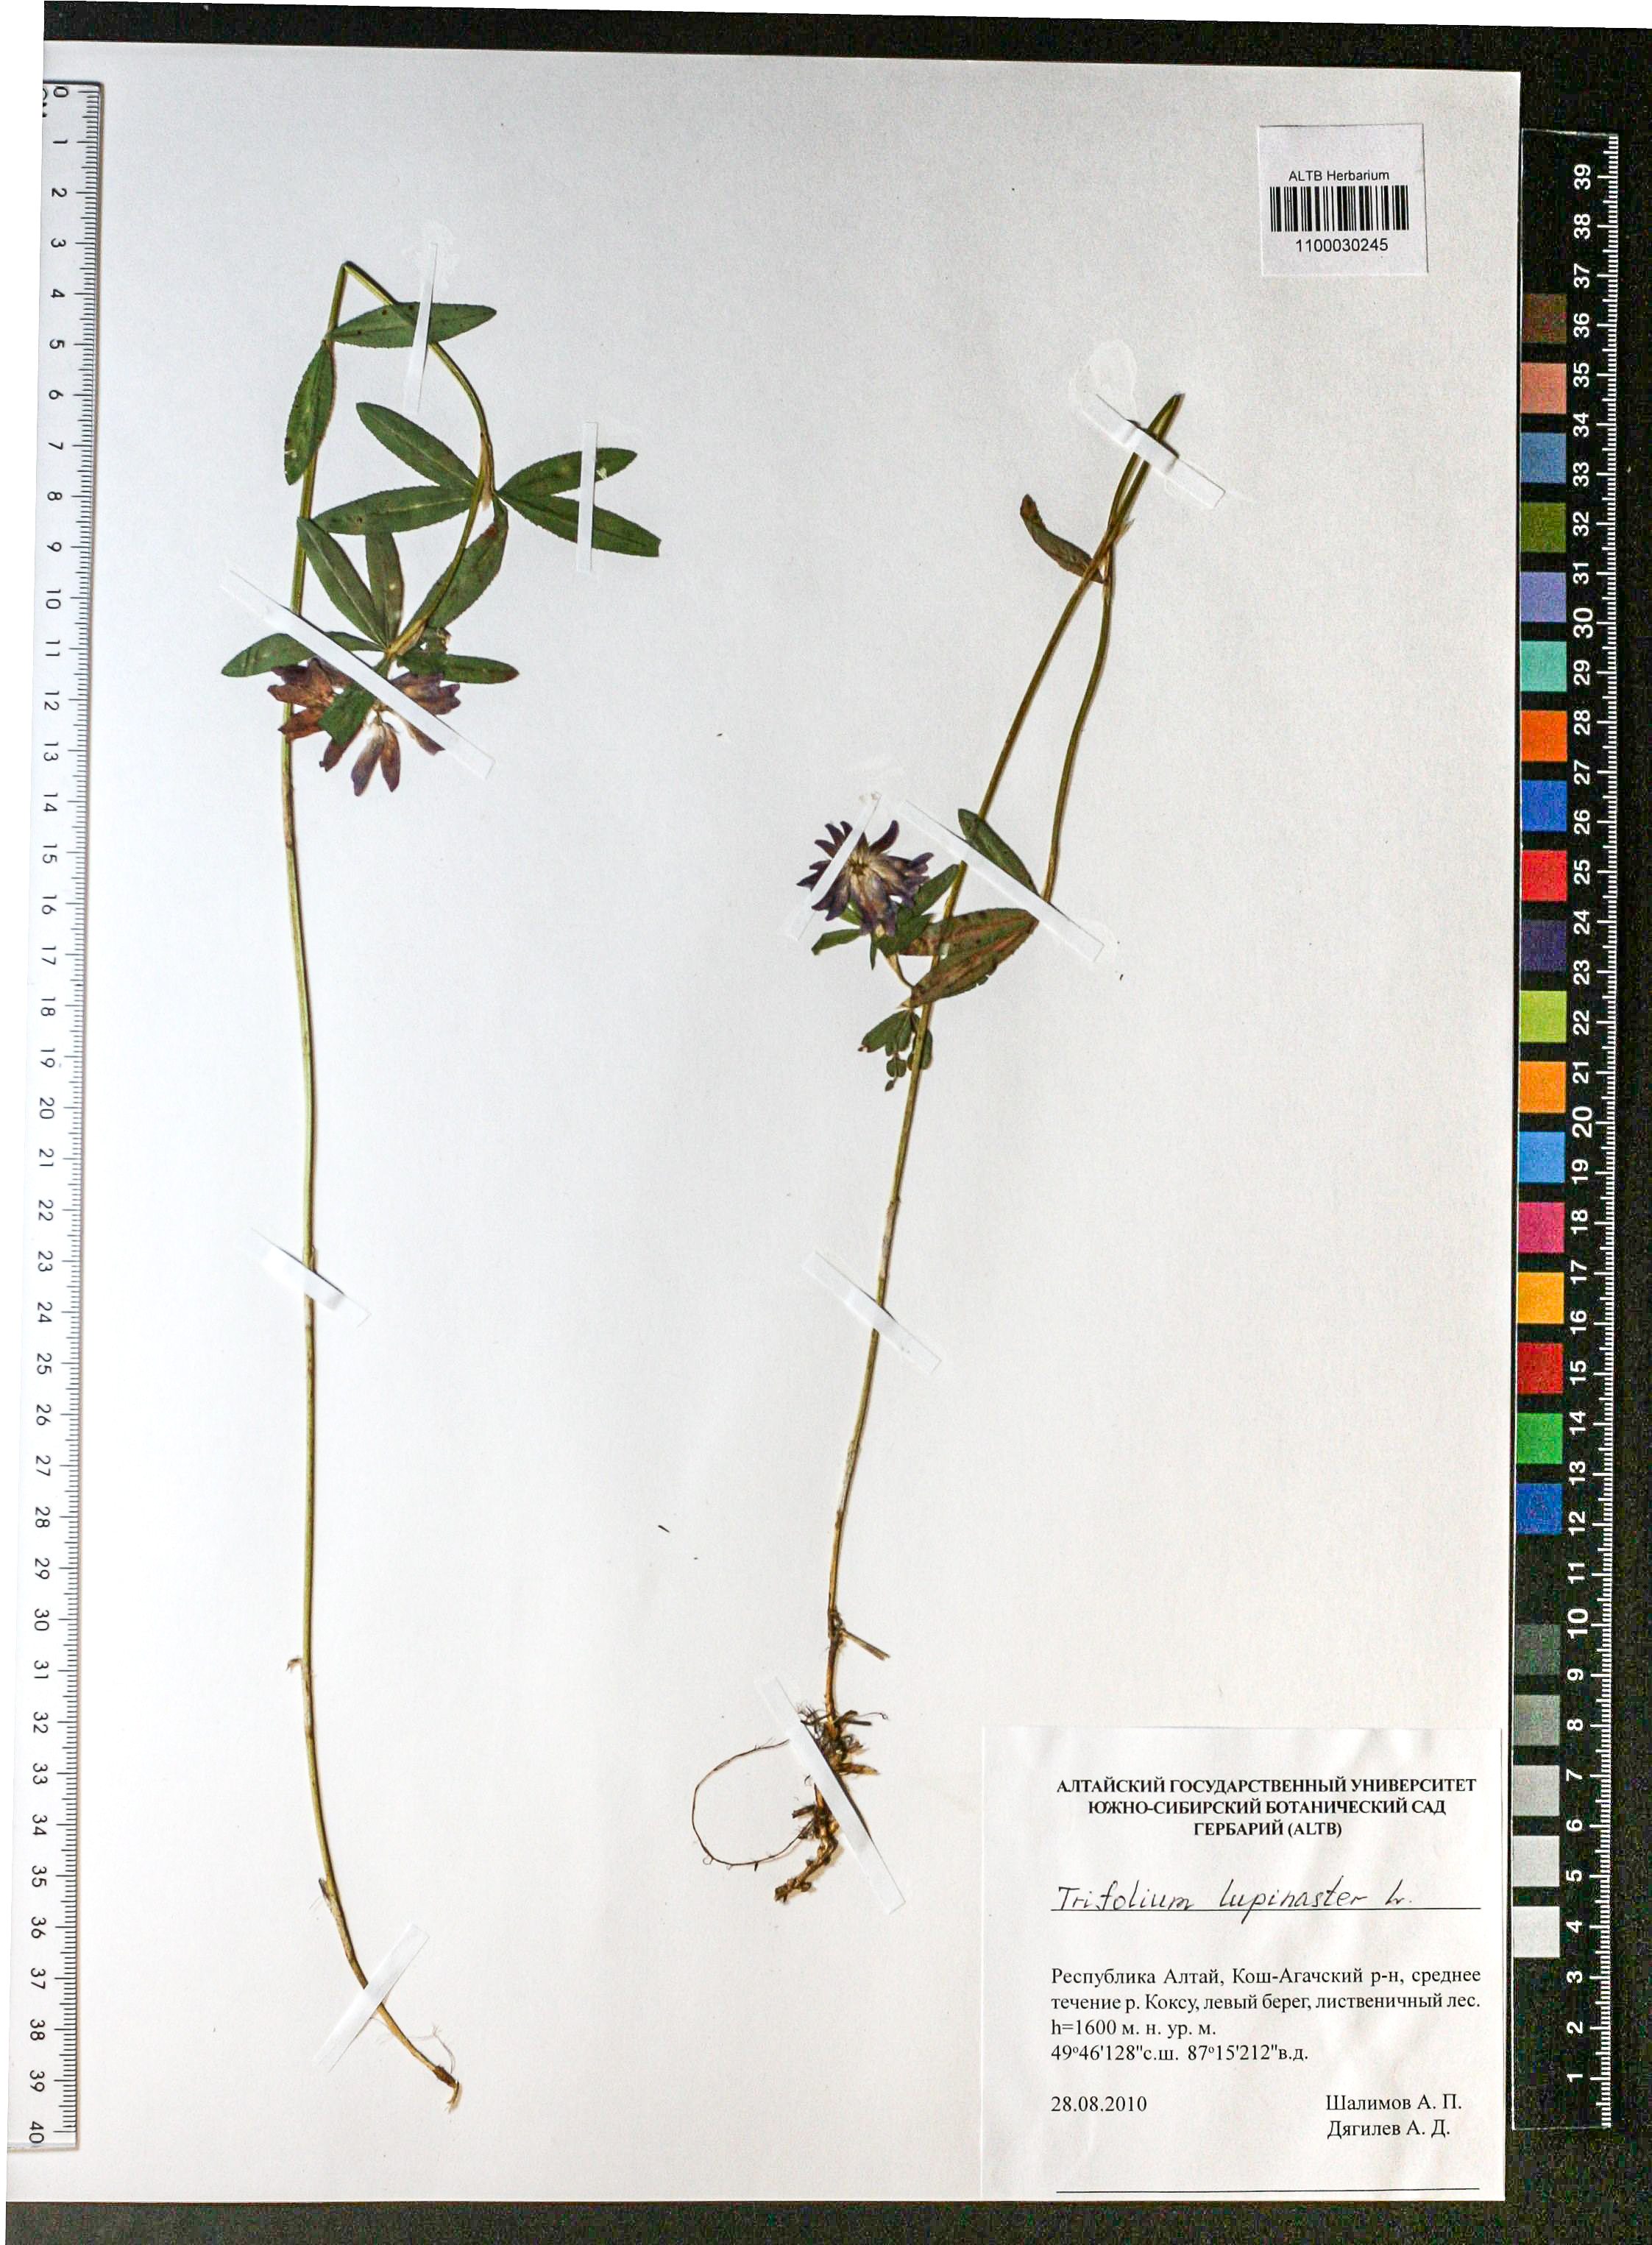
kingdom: Plantae
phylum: Tracheophyta
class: Magnoliopsida
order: Fabales
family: Fabaceae
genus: Trifolium
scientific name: Trifolium lupinaster
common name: Lupine clover
